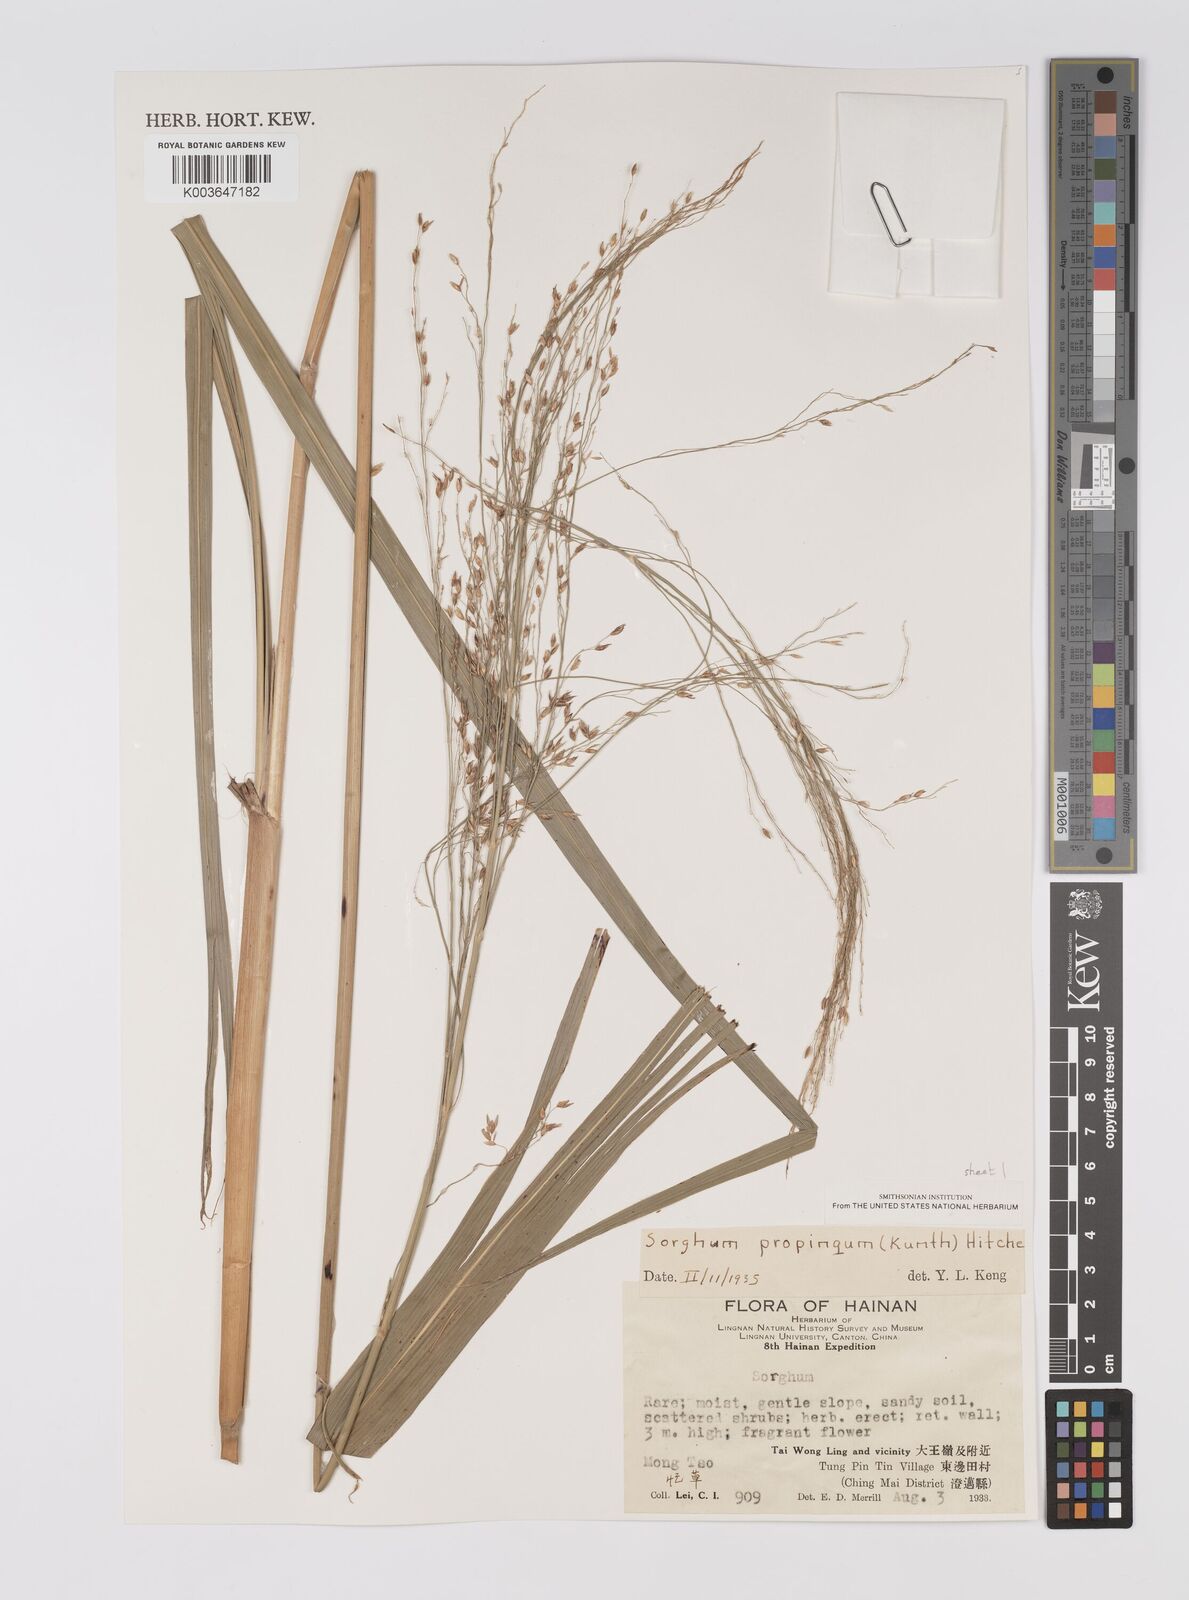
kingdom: Plantae
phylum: Tracheophyta
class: Liliopsida
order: Poales
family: Poaceae
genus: Sorghum
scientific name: Sorghum propinquum
